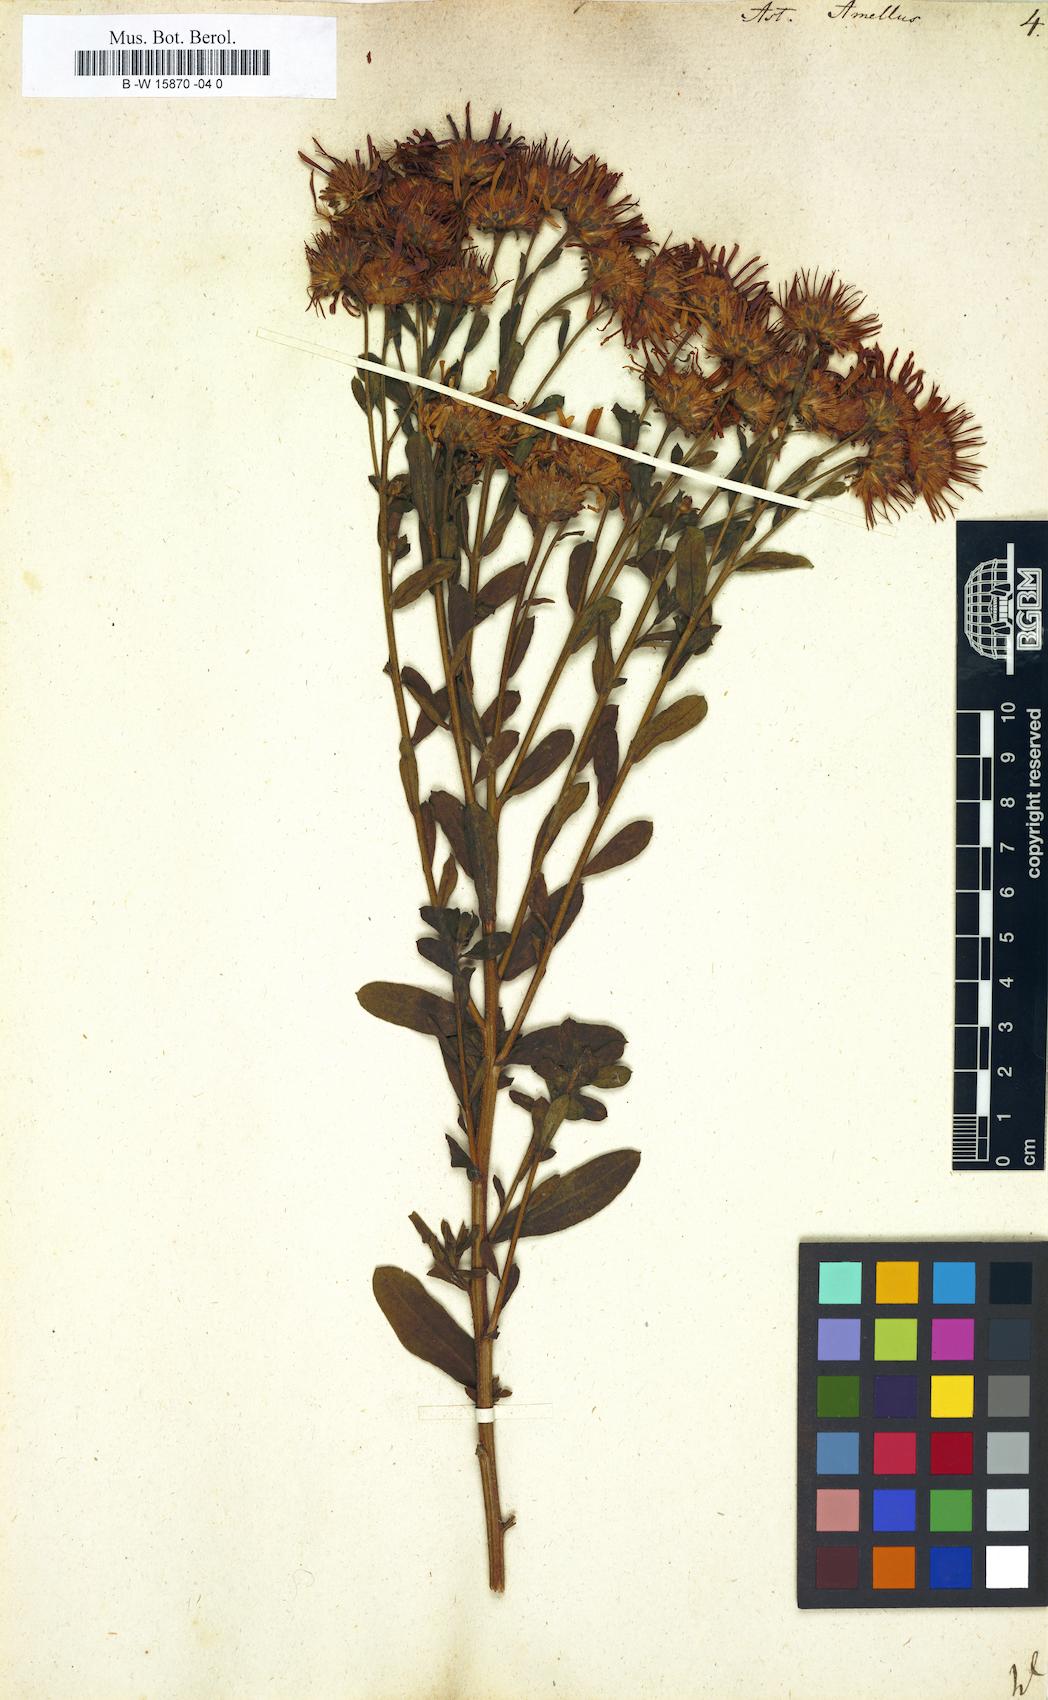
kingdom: Plantae
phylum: Tracheophyta
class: Magnoliopsida
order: Asterales
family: Asteraceae
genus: Aster
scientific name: Aster amellus
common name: European michaelmas daisy
